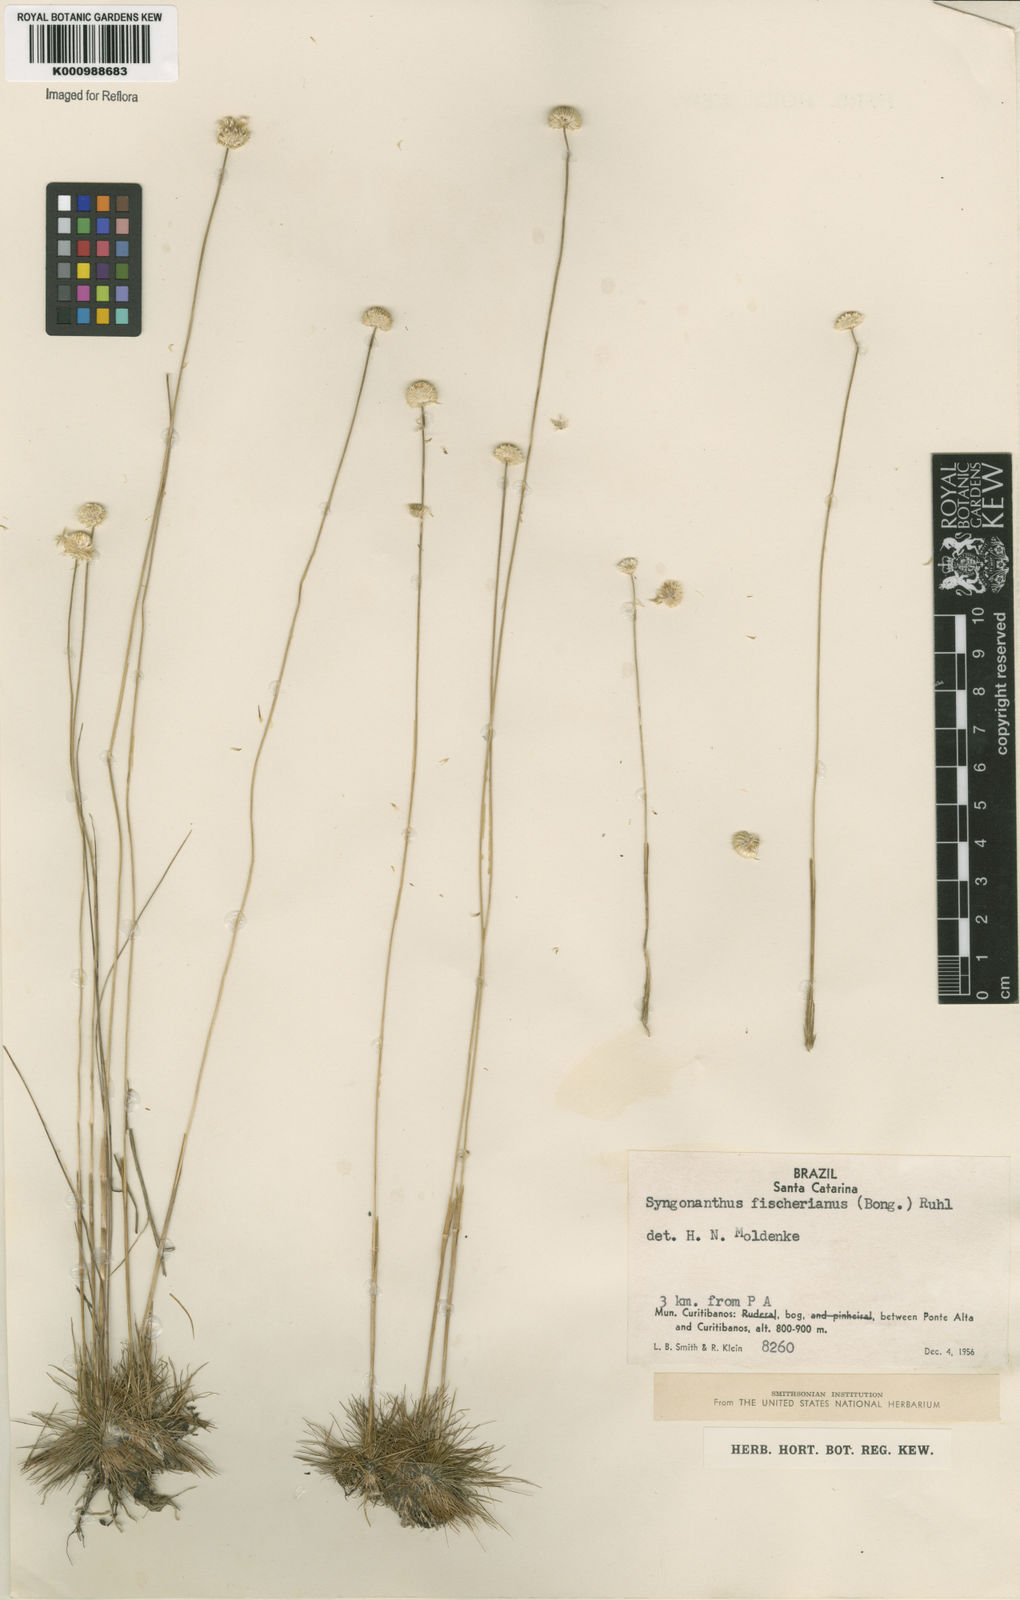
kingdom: Plantae
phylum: Tracheophyta
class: Liliopsida
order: Poales
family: Eriocaulaceae
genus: Syngonanthus
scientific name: Syngonanthus fischerianus
